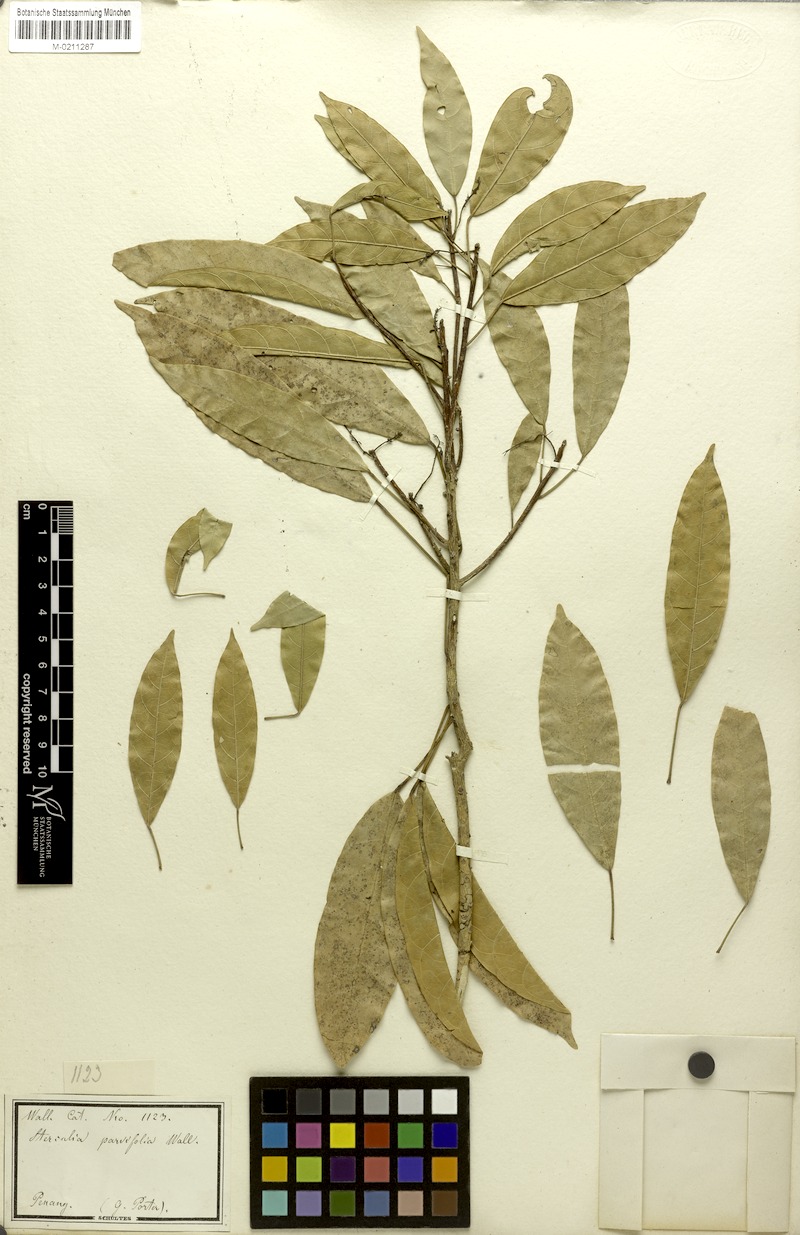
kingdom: Plantae
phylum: Tracheophyta
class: Magnoliopsida
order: Malvales
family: Malvaceae
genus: Sterculia
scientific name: Sterculia parvifolia
